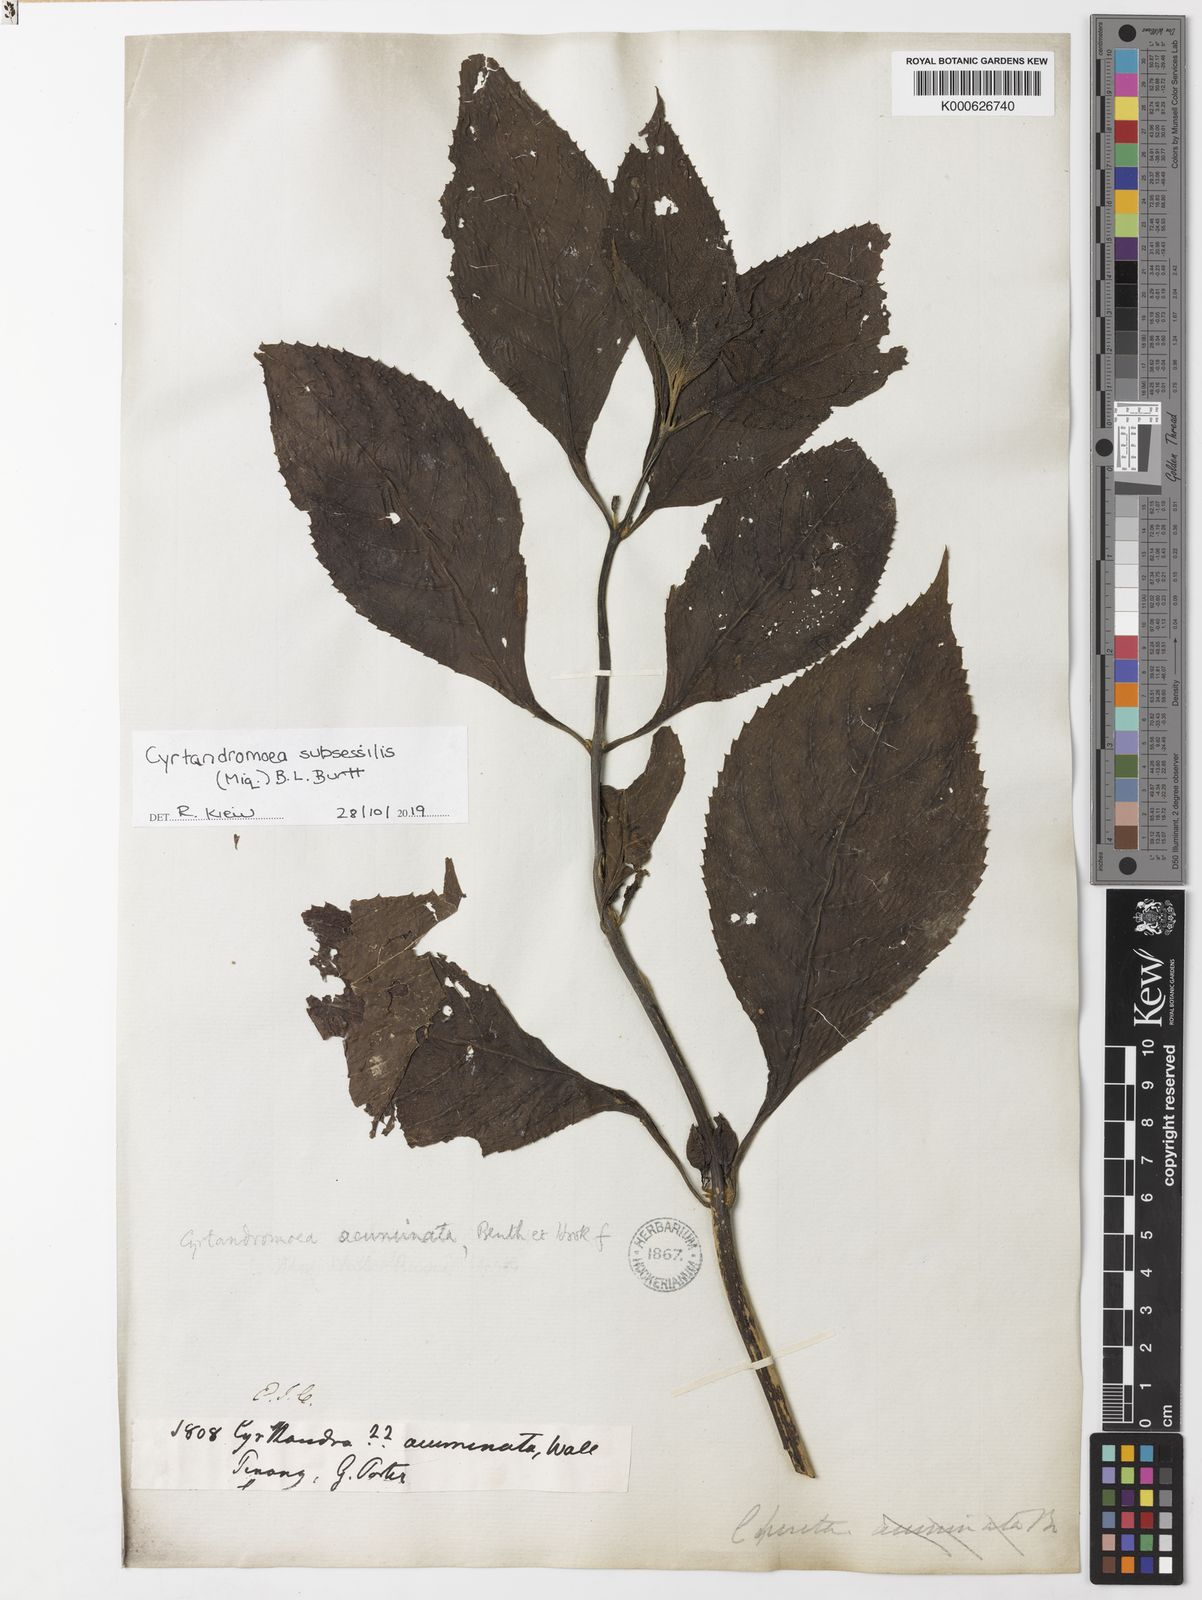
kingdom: Plantae
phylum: Tracheophyta
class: Magnoliopsida
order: Lamiales
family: Phrymaceae
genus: Cyrtandromoea
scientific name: Cyrtandromoea subsessilis
